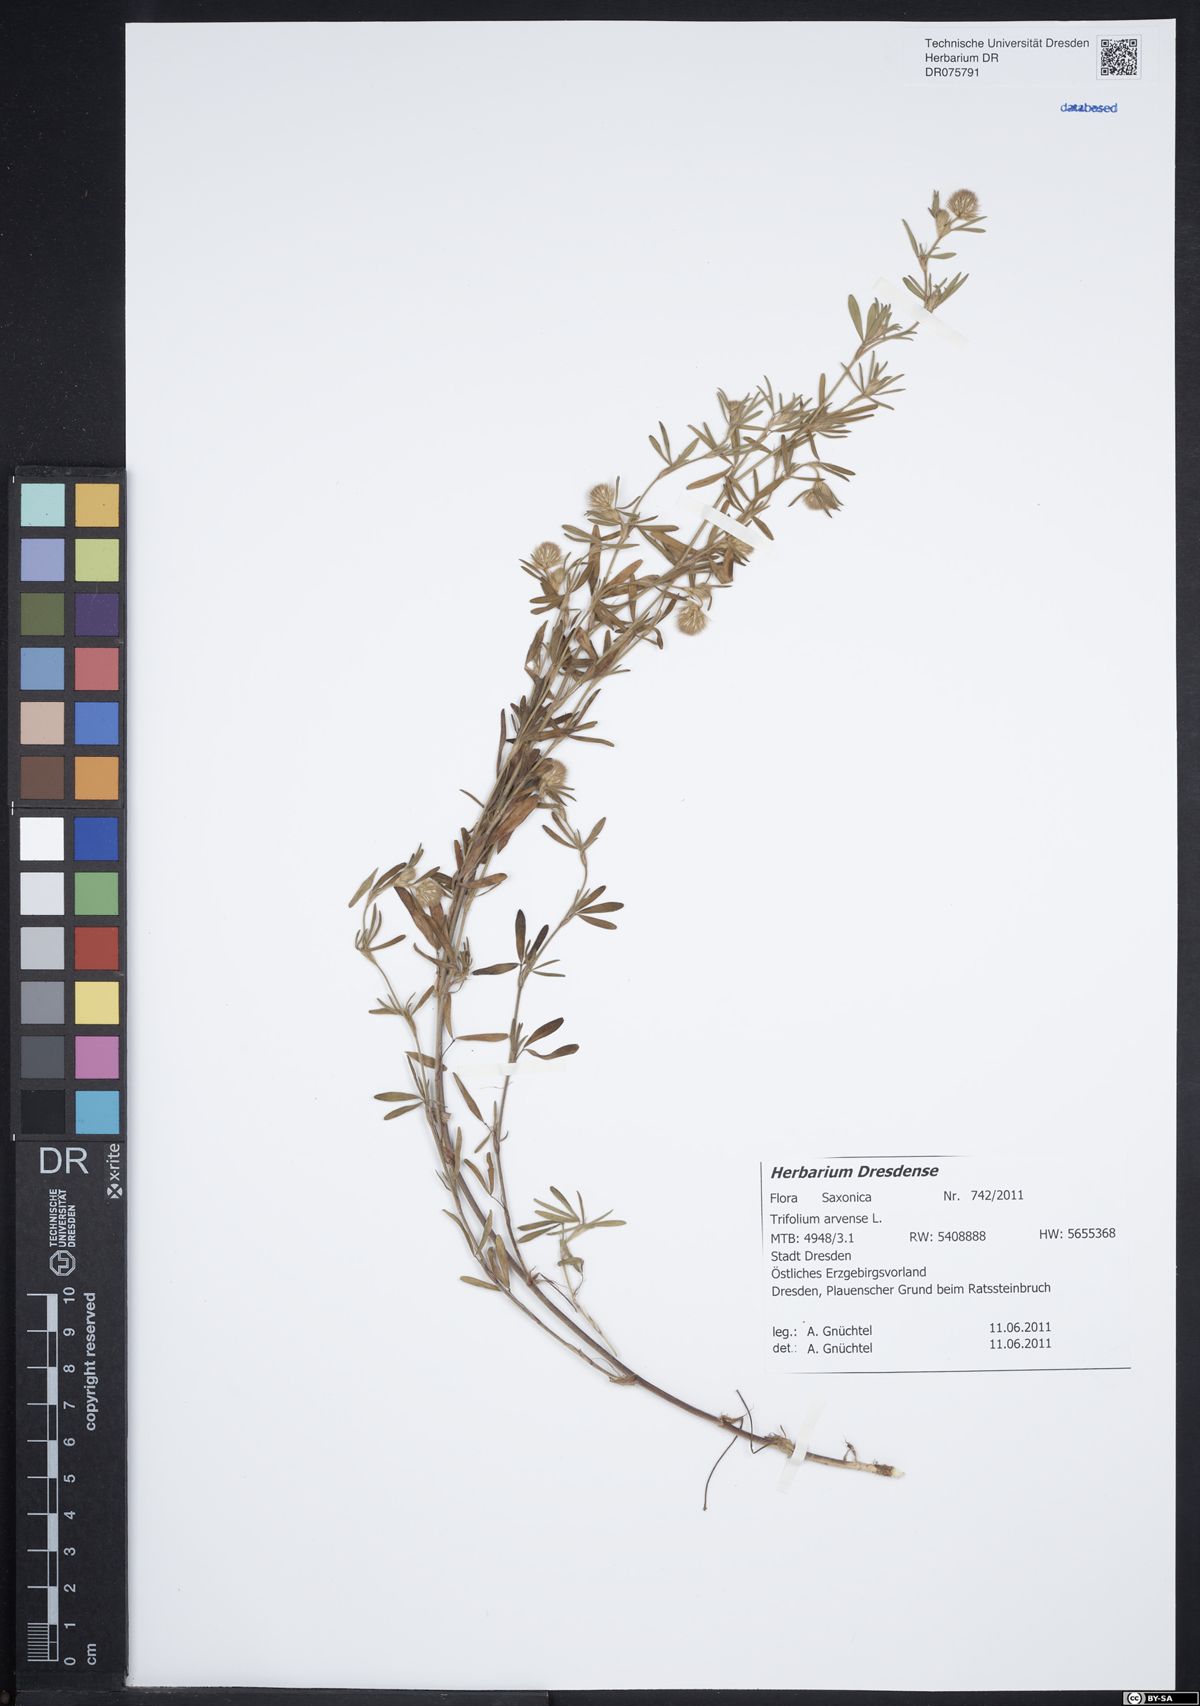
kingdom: Plantae
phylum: Tracheophyta
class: Magnoliopsida
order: Fabales
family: Fabaceae
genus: Trifolium
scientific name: Trifolium arvense
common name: Hare's-foot clover
